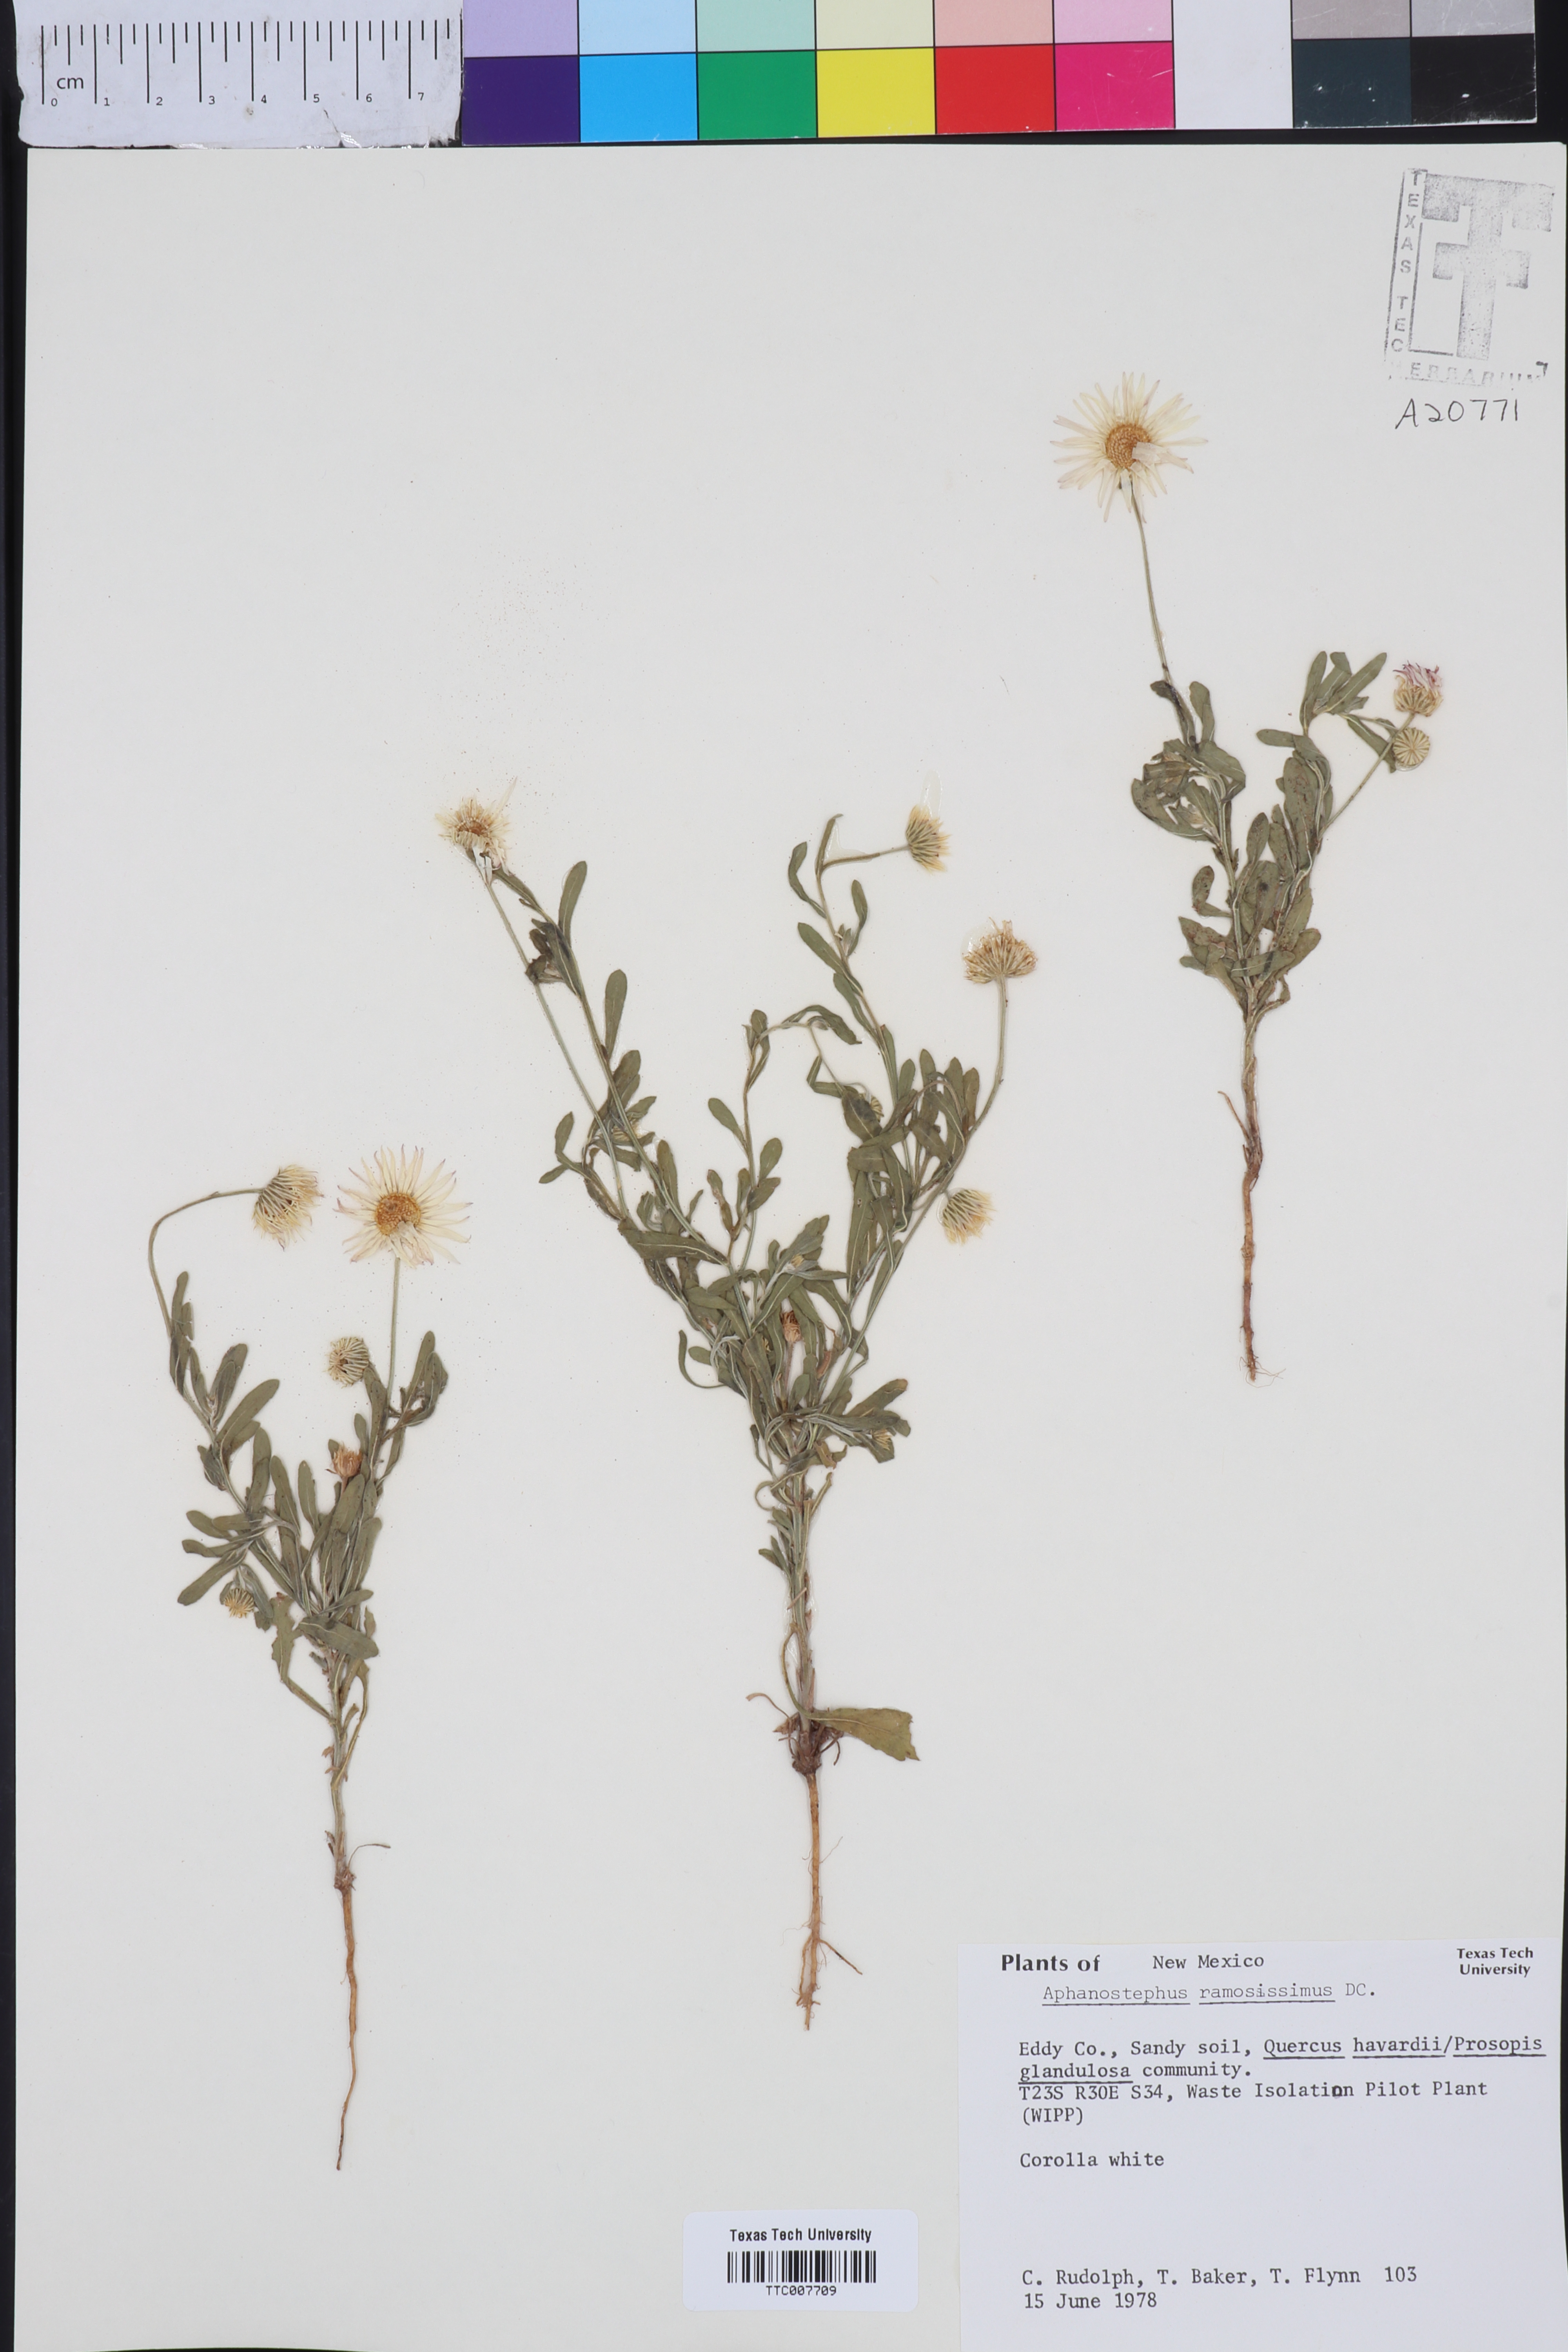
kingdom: Plantae
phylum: Tracheophyta
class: Magnoliopsida
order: Asterales
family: Asteraceae
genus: Aphanostephus
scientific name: Aphanostephus ramosissimus
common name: Plains lazy daisy
